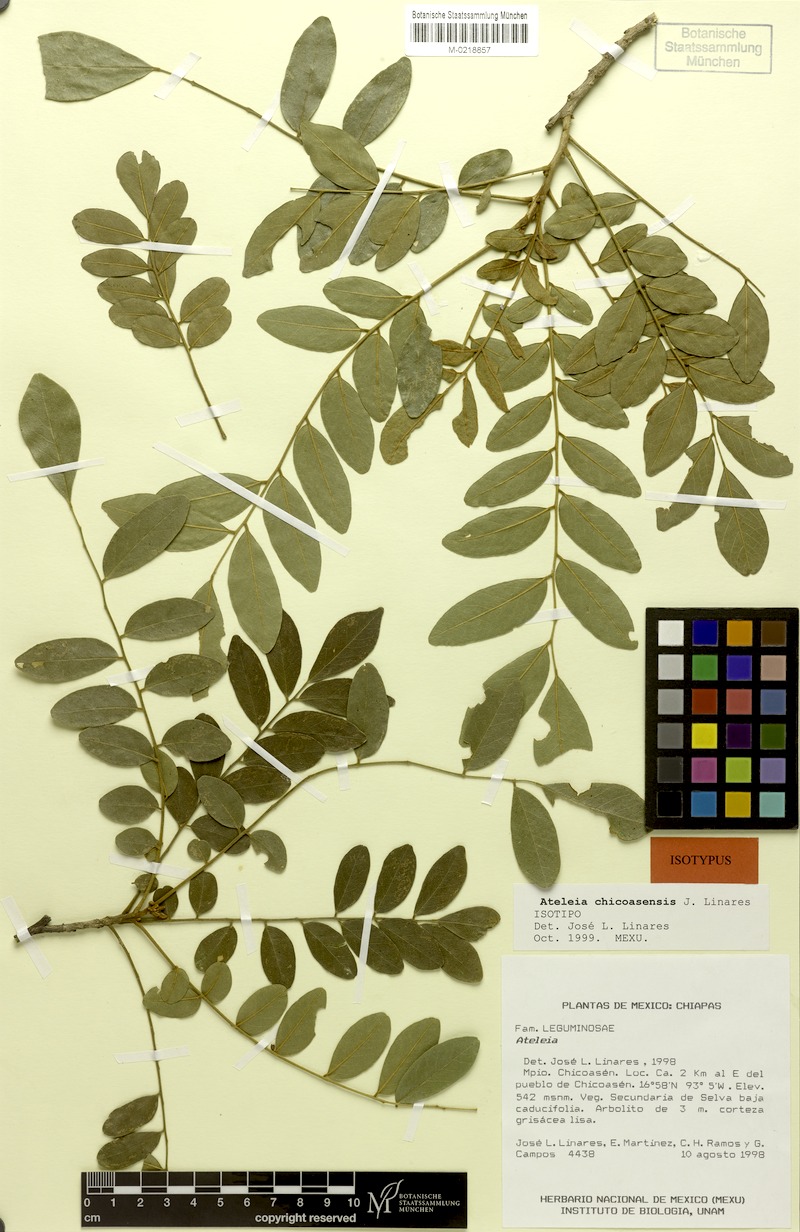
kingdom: Plantae
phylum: Tracheophyta
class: Magnoliopsida
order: Fabales
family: Fabaceae
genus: Ateleia
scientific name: Ateleia chicoasensis
